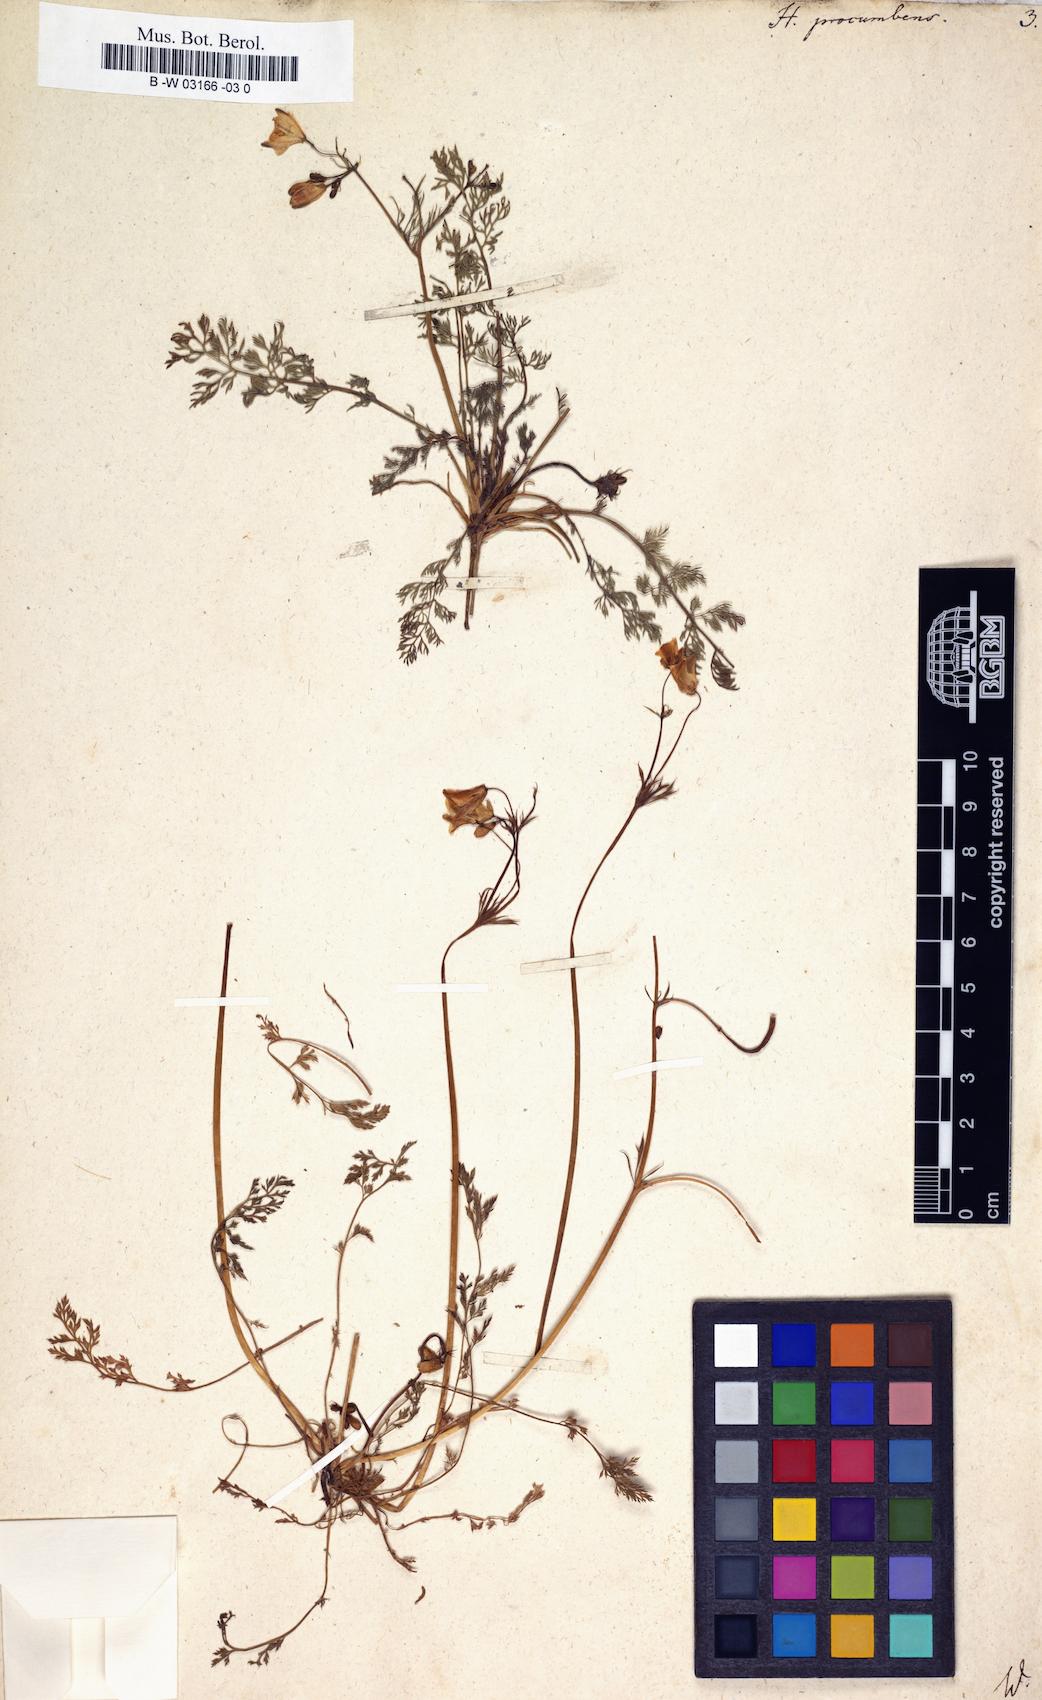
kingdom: Plantae
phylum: Tracheophyta
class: Magnoliopsida
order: Ranunculales
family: Papaveraceae
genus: Hypecoum
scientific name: Hypecoum procumbens
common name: Procumbent hypecoum
